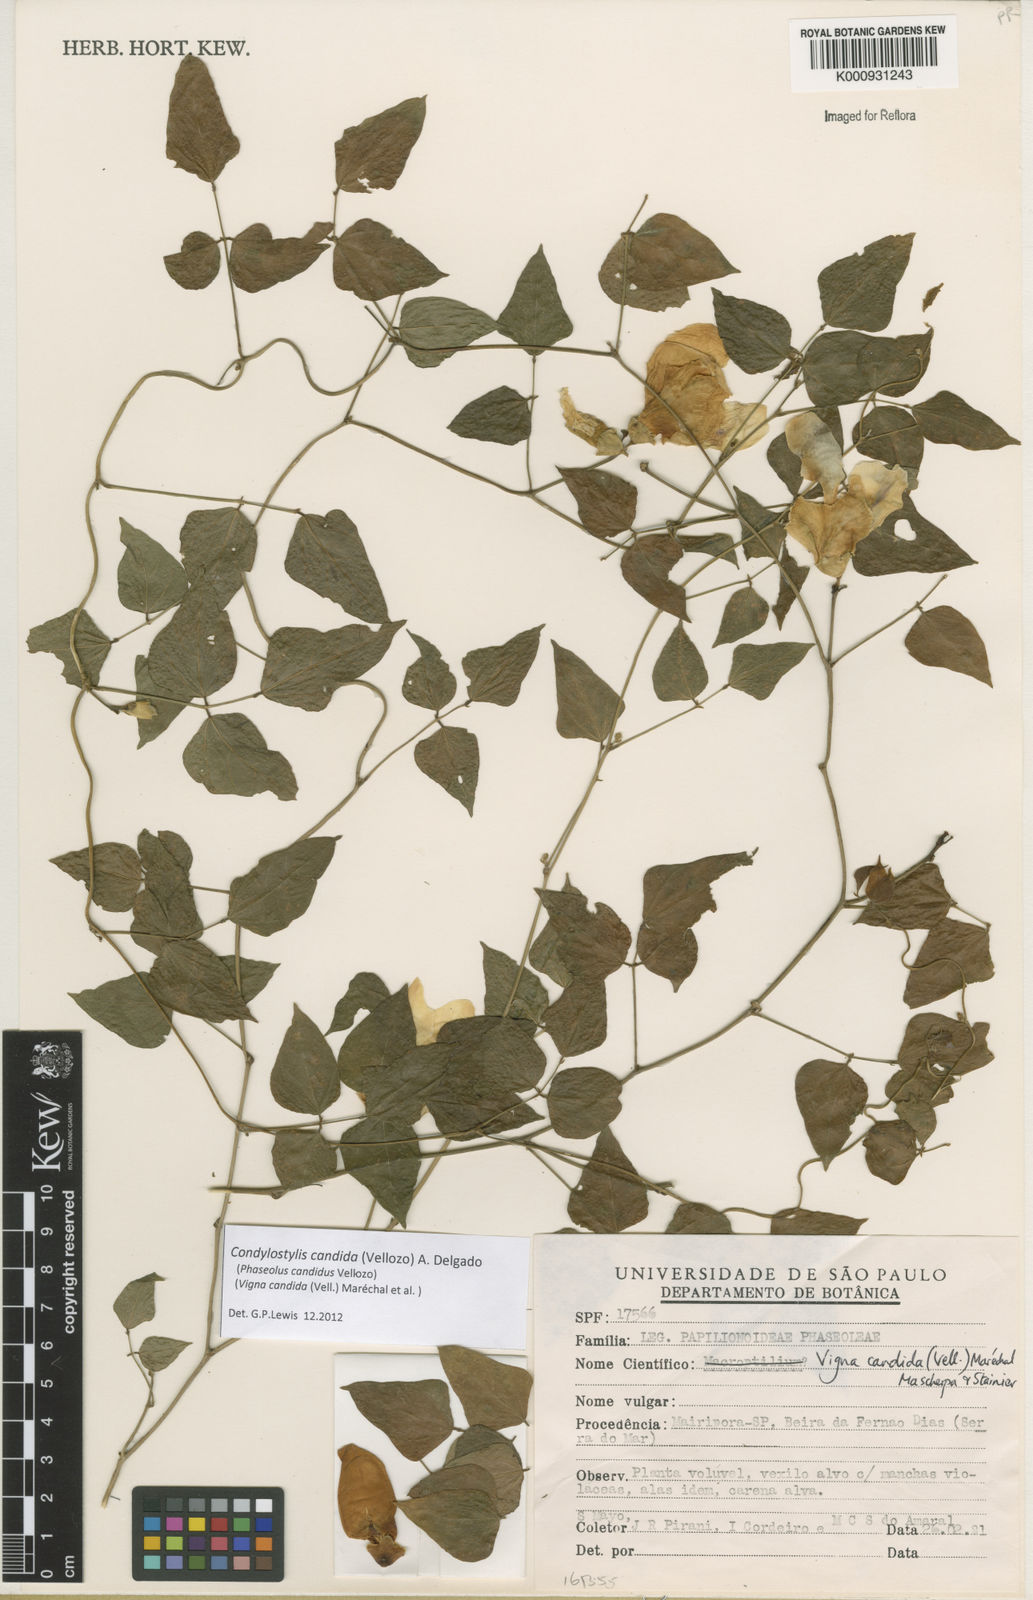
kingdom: Plantae
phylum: Tracheophyta
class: Magnoliopsida
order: Fabales
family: Fabaceae
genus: Condylostylis
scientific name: Condylostylis candida
